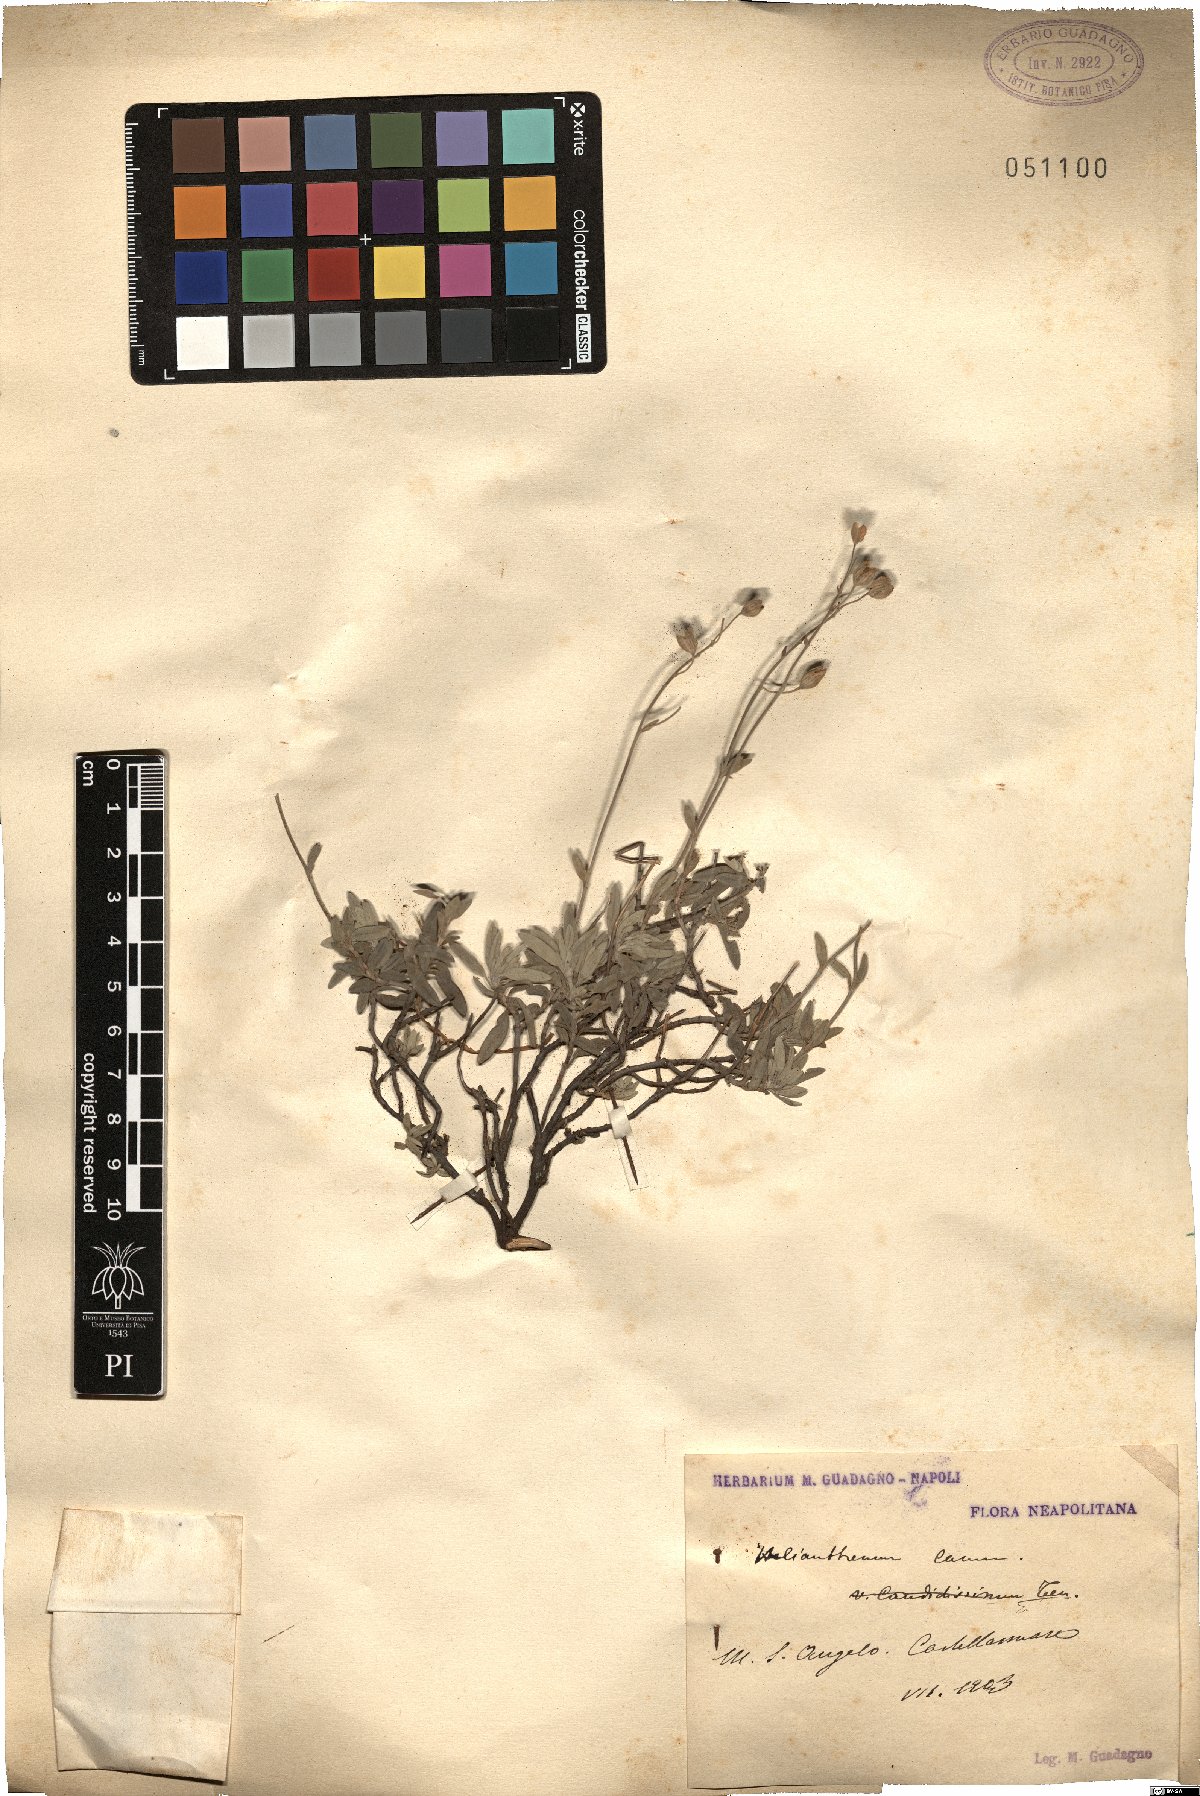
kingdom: Plantae
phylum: Tracheophyta
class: Magnoliopsida
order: Malvales
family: Cistaceae
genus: Helianthemum
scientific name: Helianthemum canum
